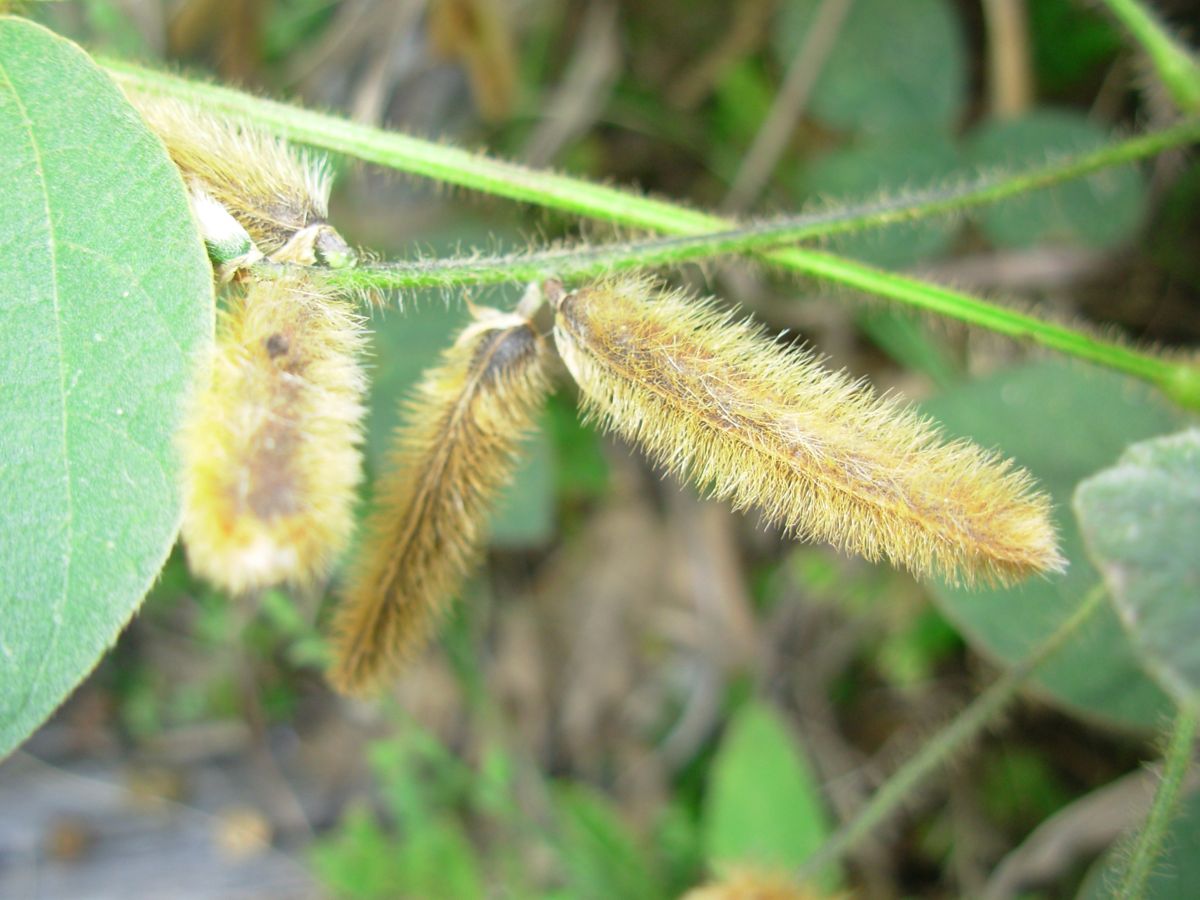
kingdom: Plantae
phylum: Tracheophyta
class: Magnoliopsida
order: Fabales
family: Fabaceae
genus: Calopogonium
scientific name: Calopogonium mucunoides
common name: Calopo
